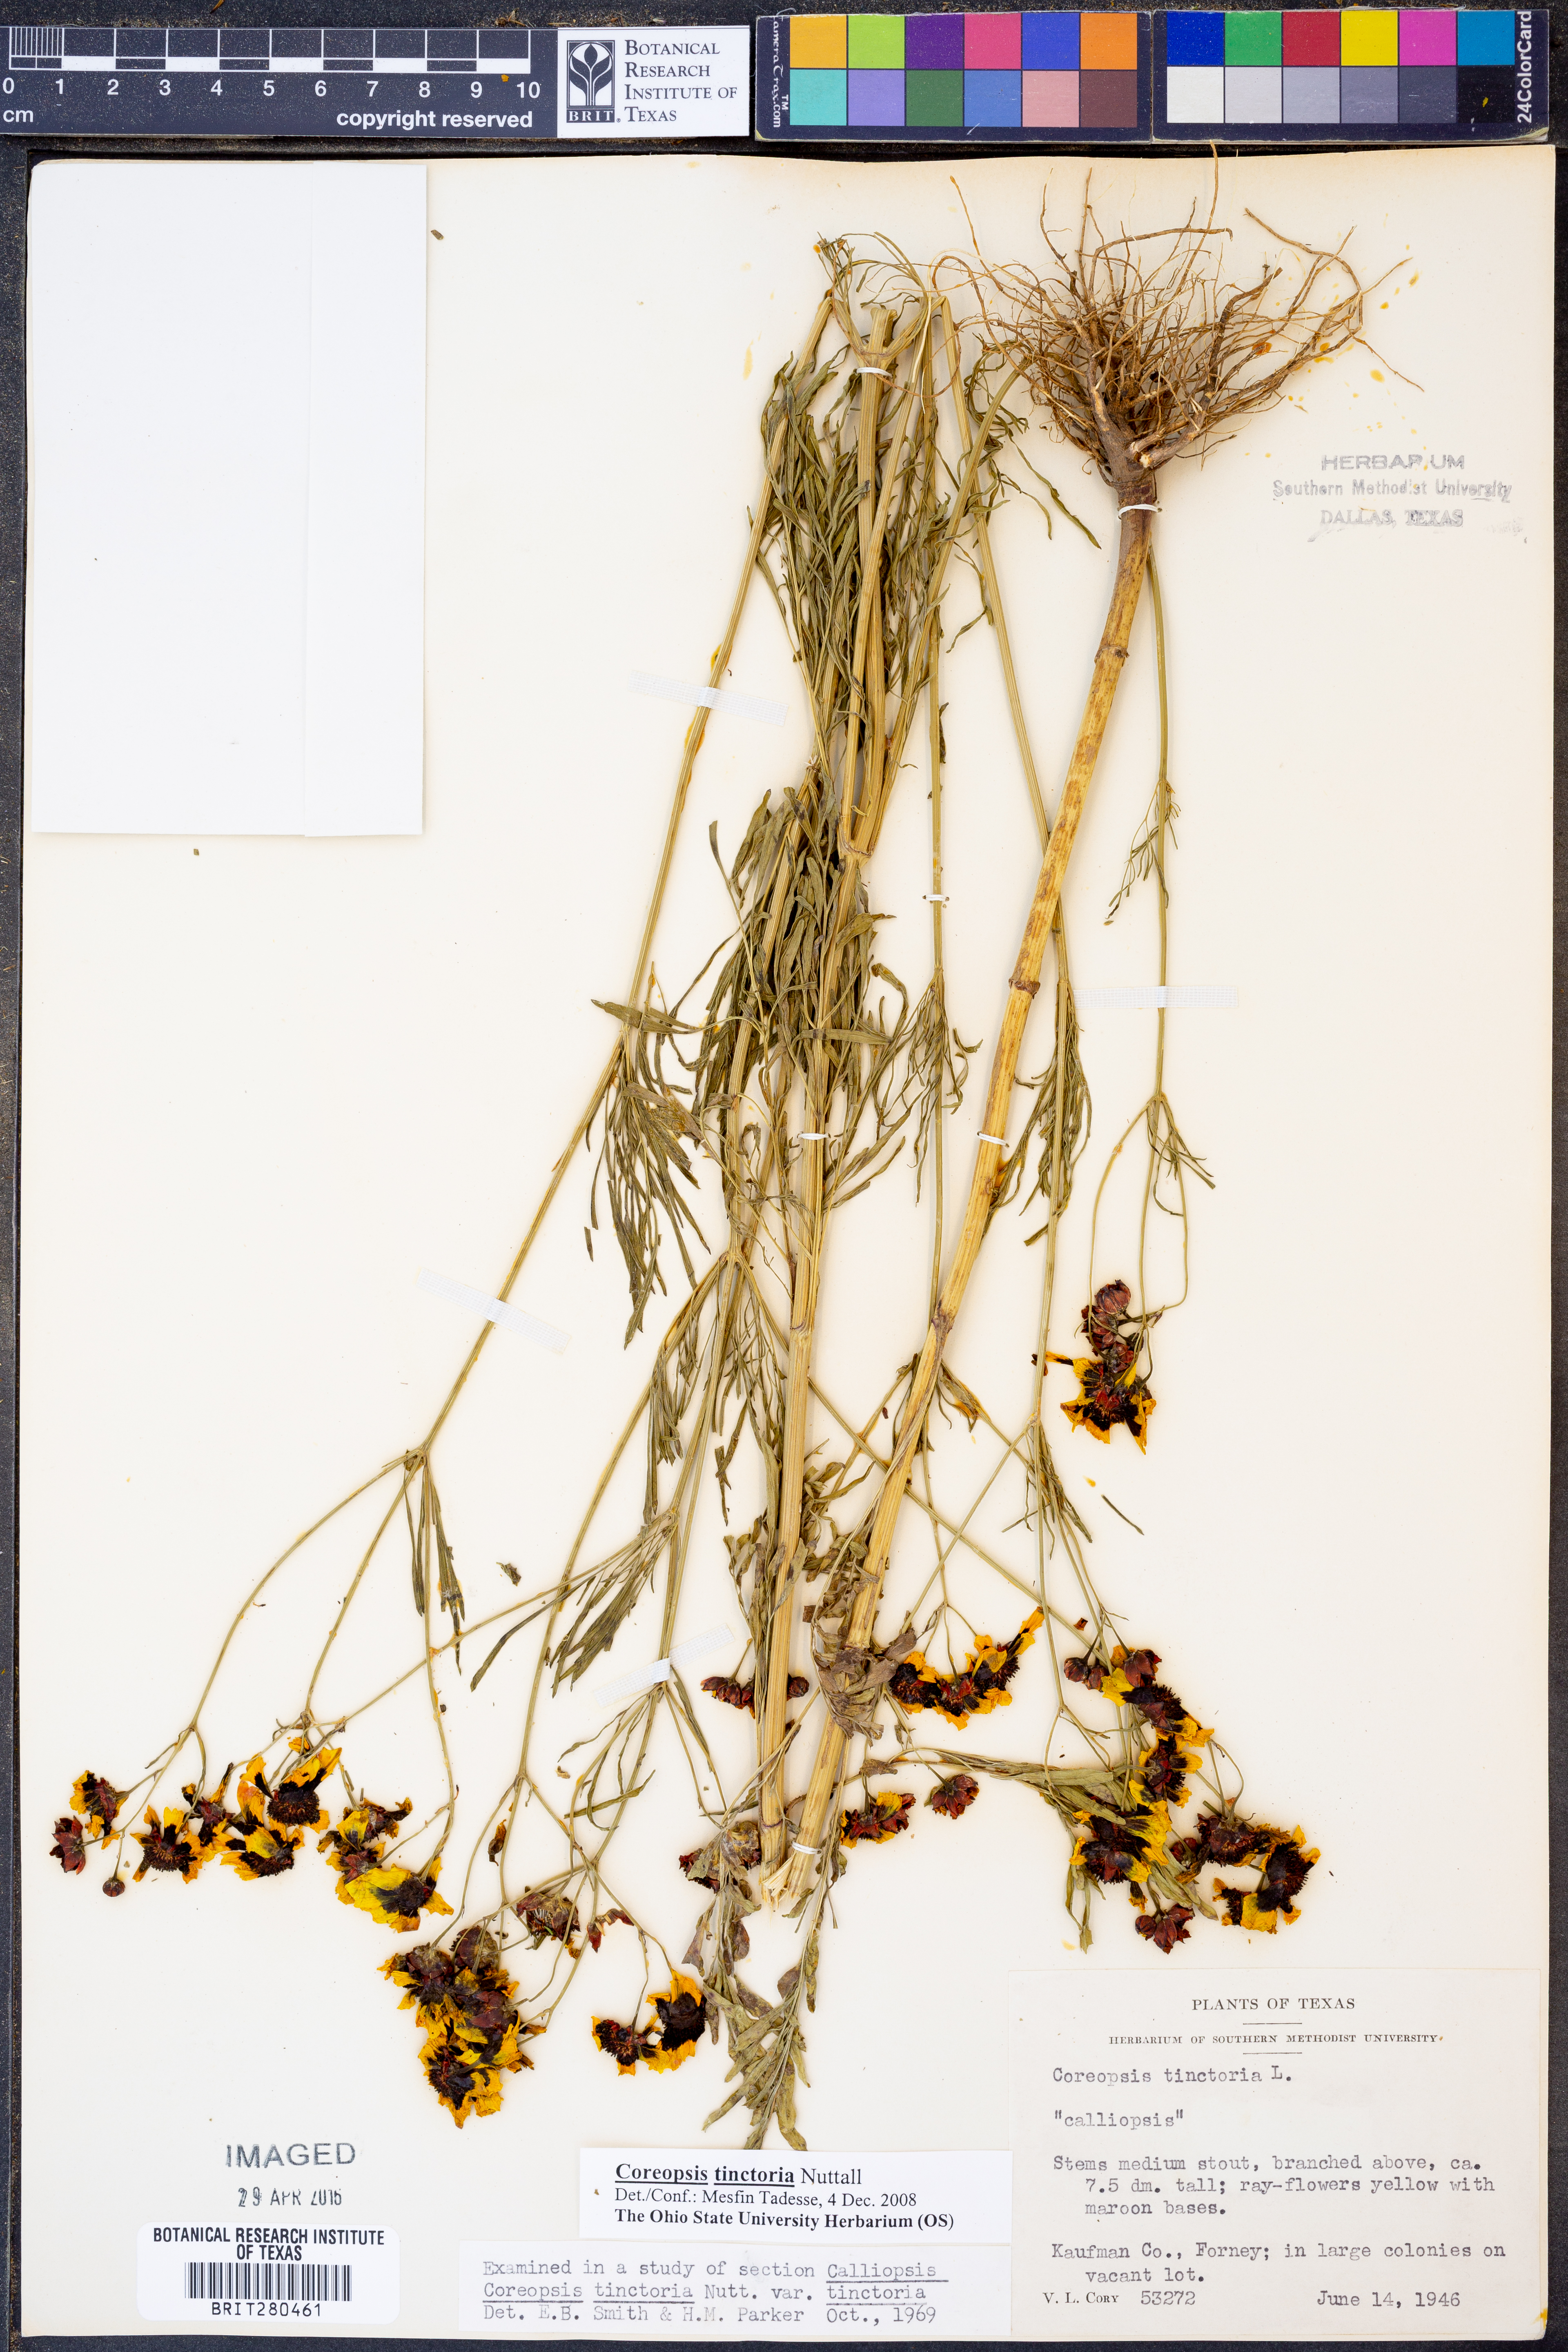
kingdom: Plantae
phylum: Tracheophyta
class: Magnoliopsida
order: Asterales
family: Asteraceae
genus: Coreopsis
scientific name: Coreopsis tinctoria
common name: Garden tickseed
